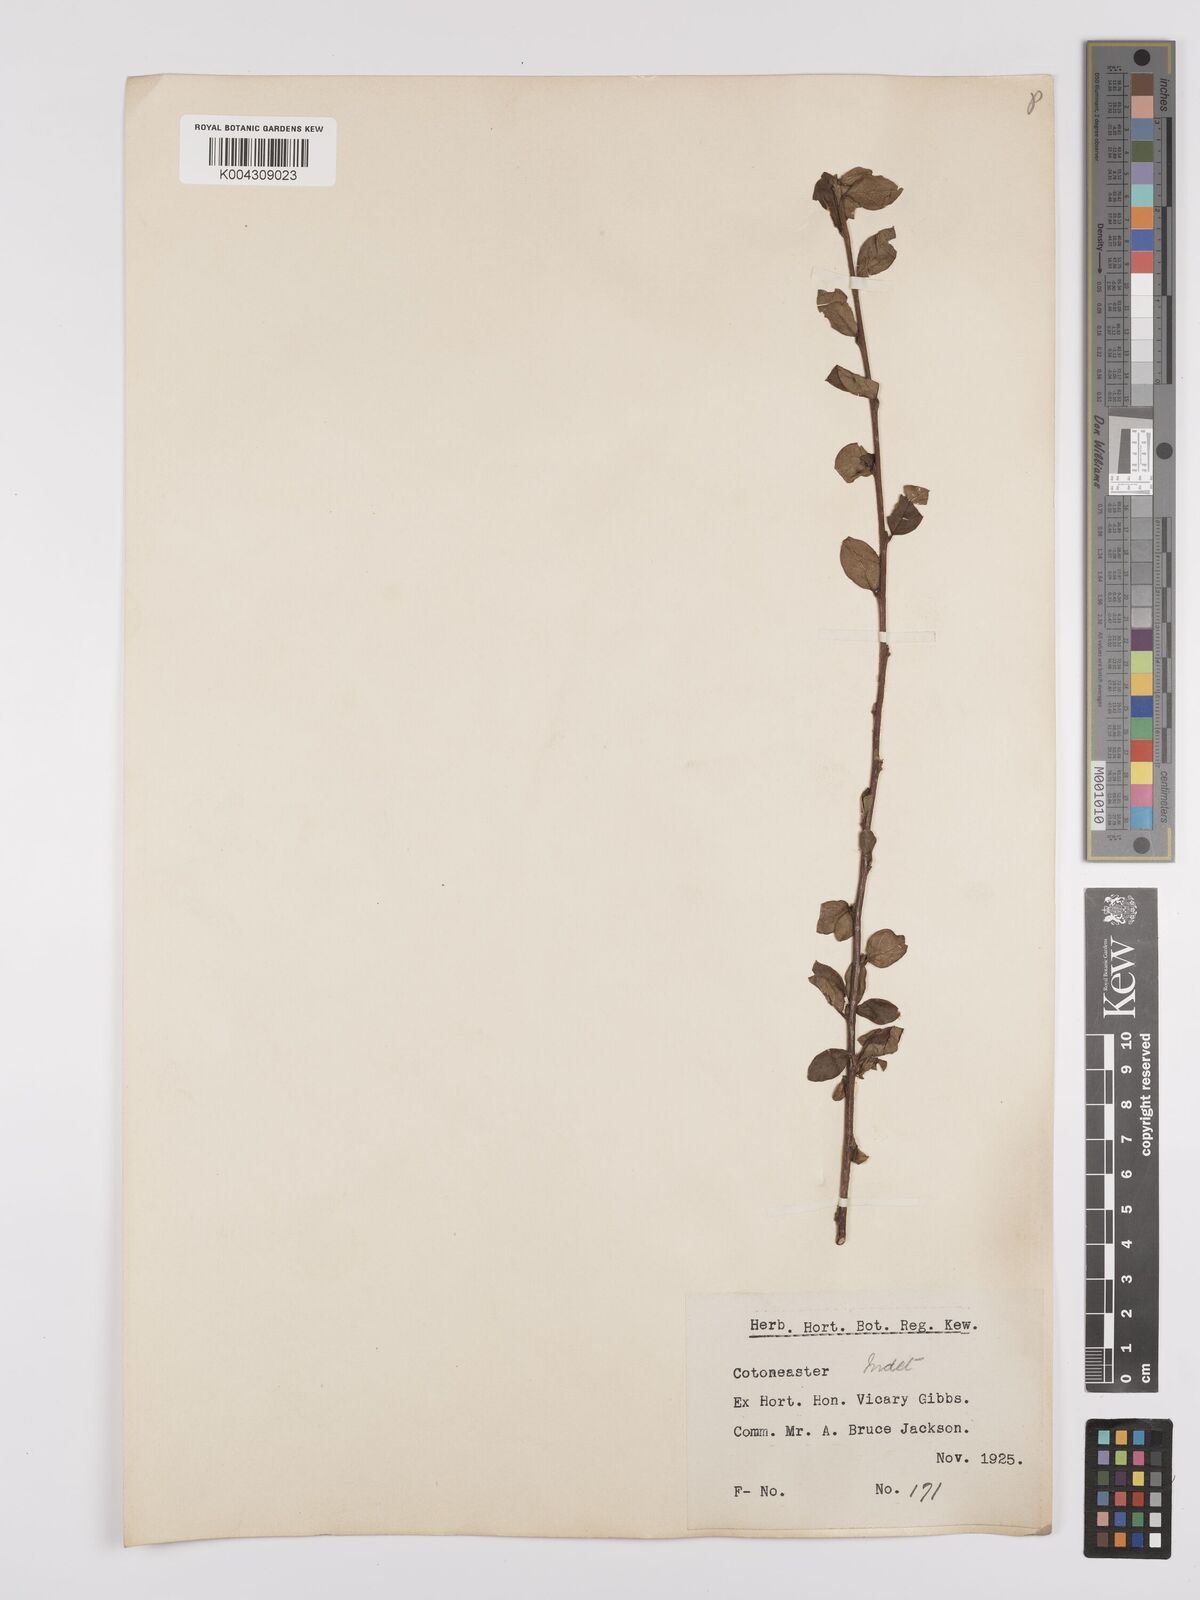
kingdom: Plantae
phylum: Tracheophyta
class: Magnoliopsida
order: Rosales
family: Rosaceae
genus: Cotoneaster
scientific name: Cotoneaster
